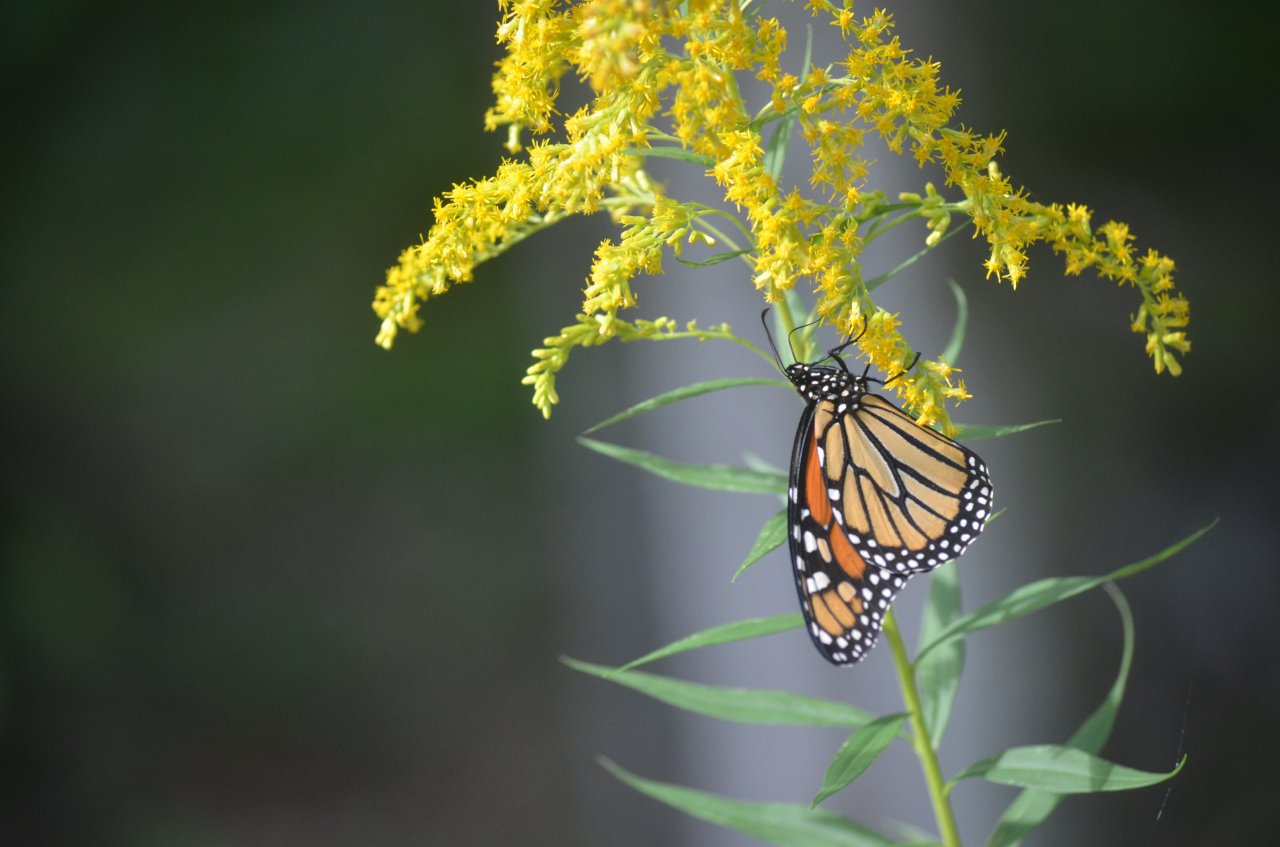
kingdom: Animalia
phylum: Arthropoda
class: Insecta
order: Lepidoptera
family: Nymphalidae
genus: Danaus
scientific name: Danaus plexippus
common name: Monarch
